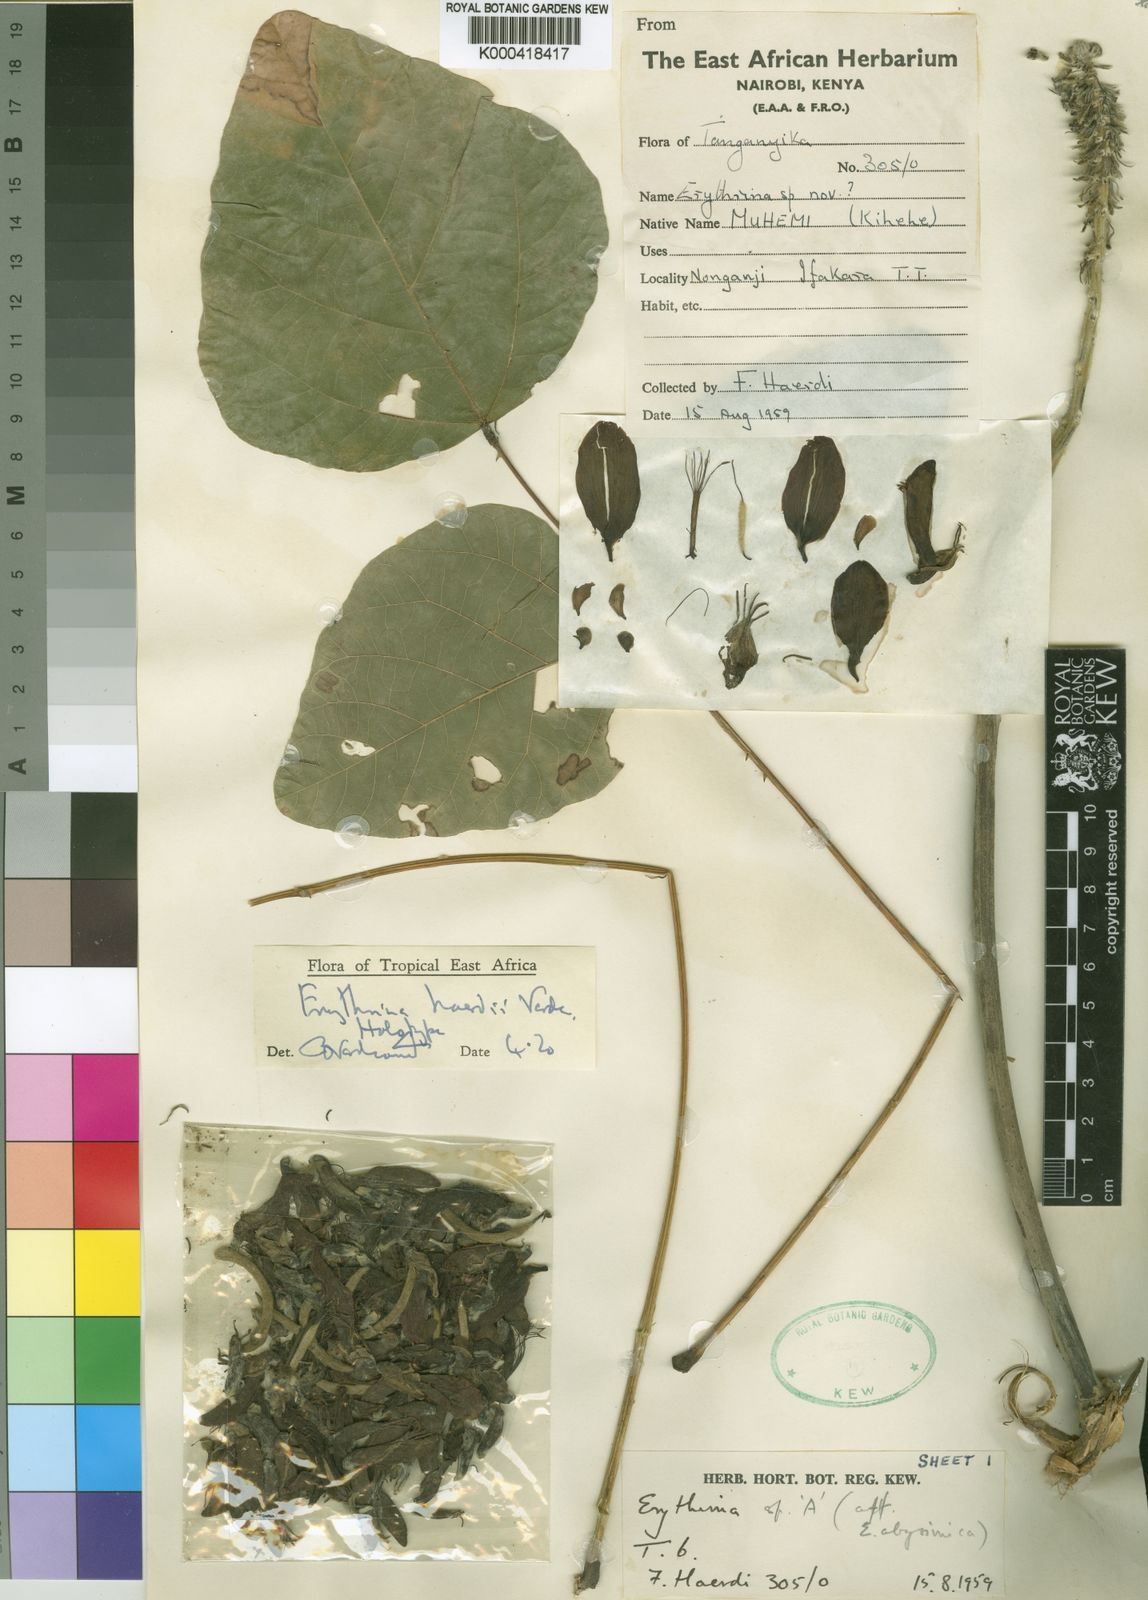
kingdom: Plantae
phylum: Tracheophyta
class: Magnoliopsida
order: Fabales
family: Fabaceae
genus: Erythrina
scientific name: Erythrina haerdii
